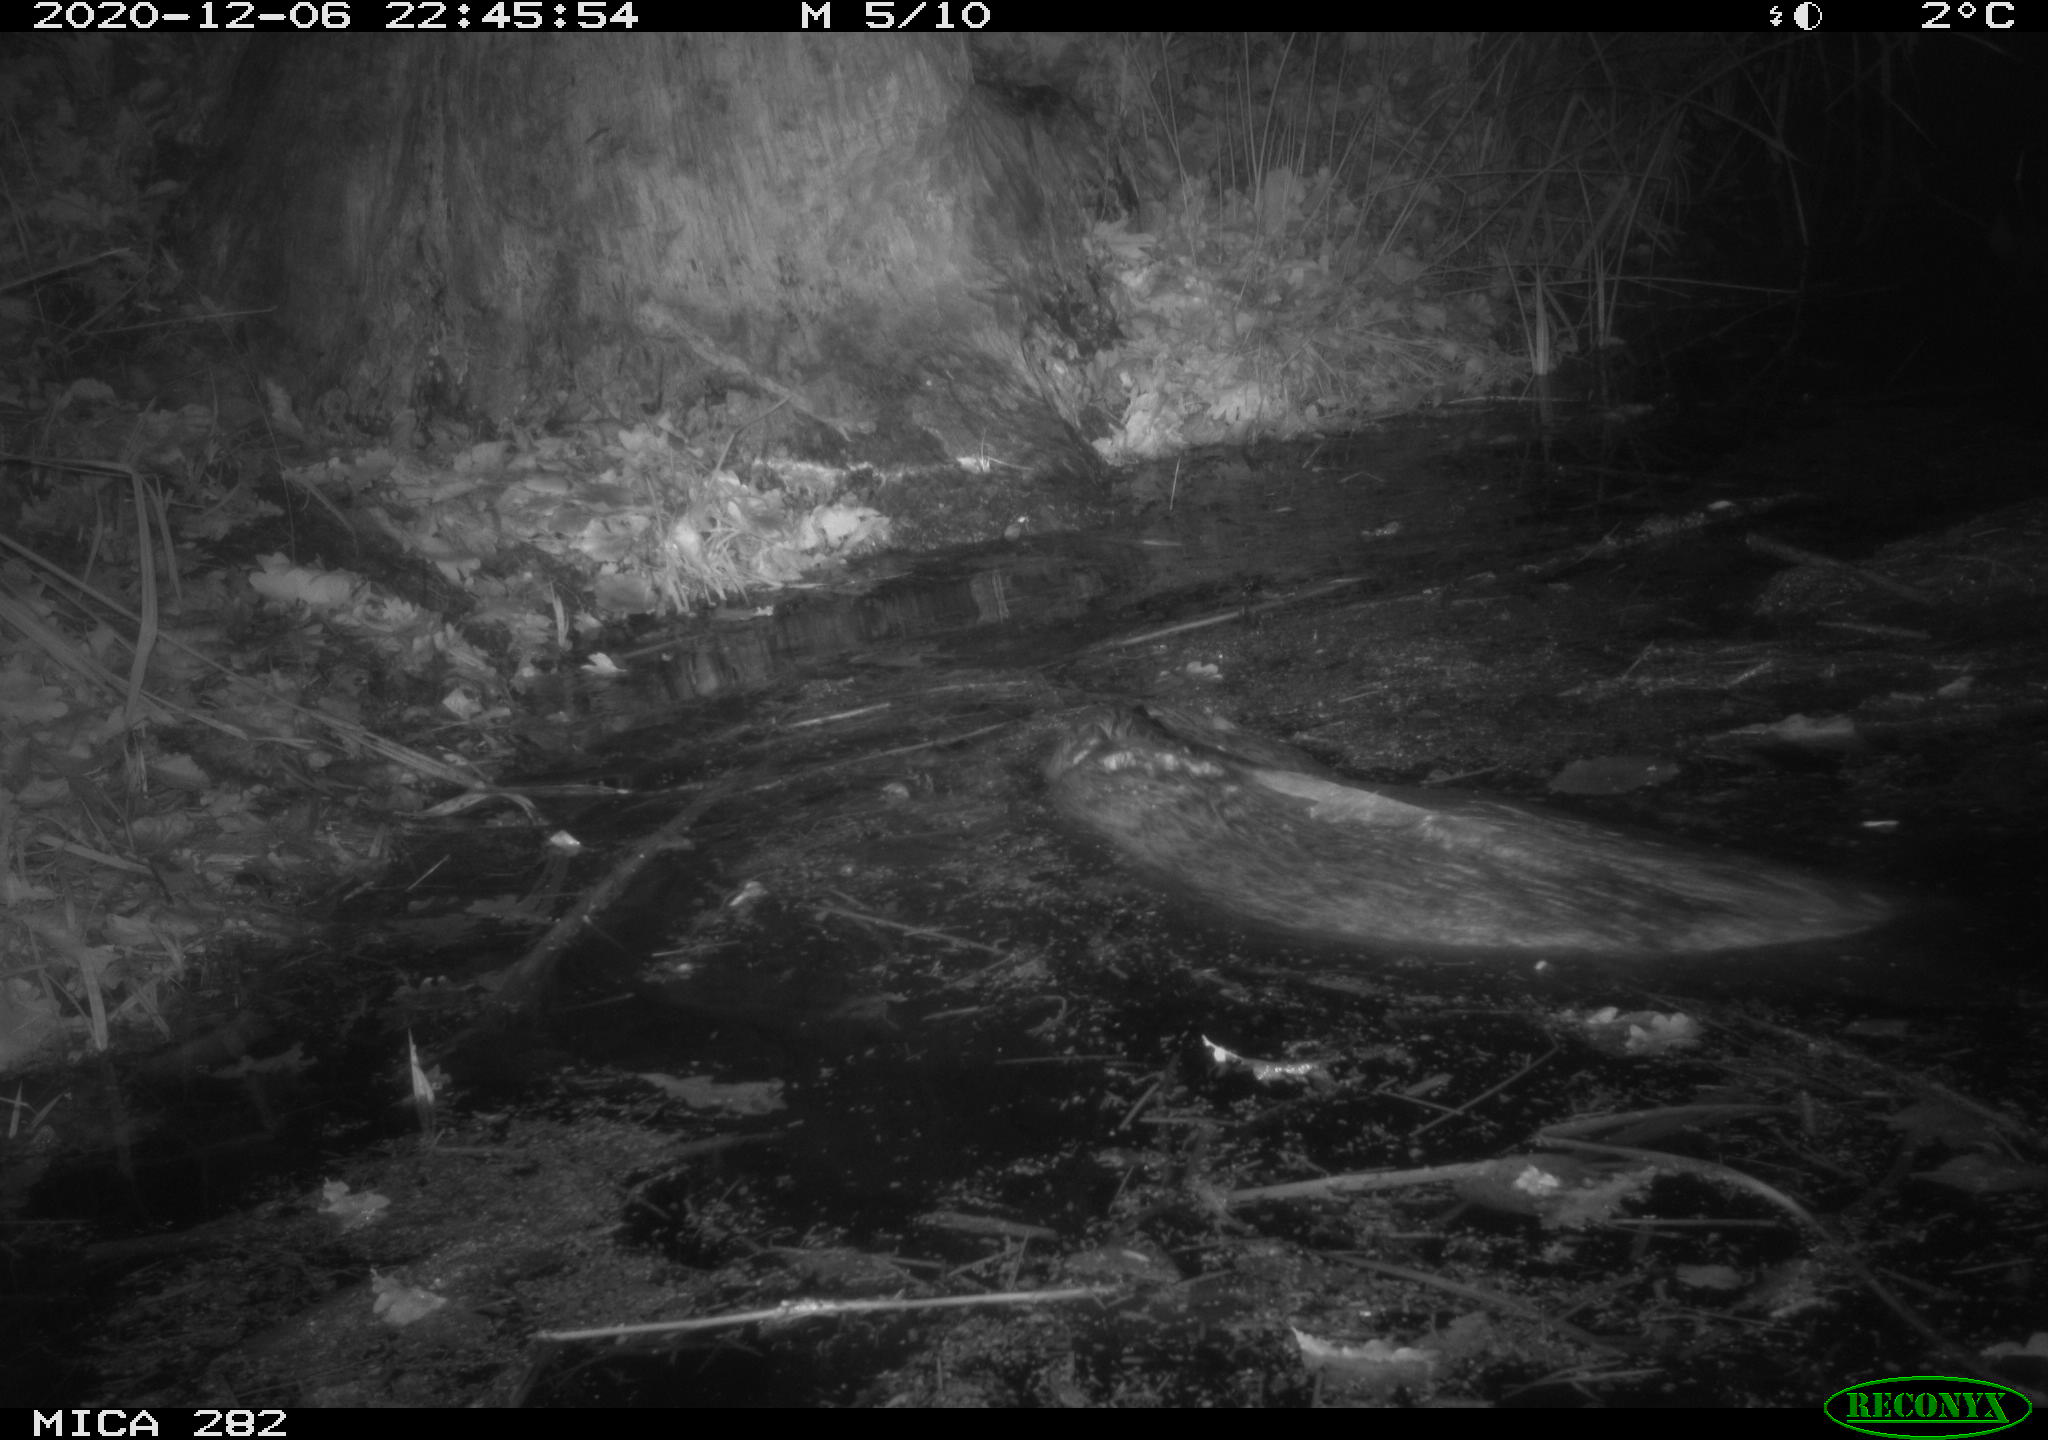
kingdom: Animalia
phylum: Chordata
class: Mammalia
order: Rodentia
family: Castoridae
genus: Castor
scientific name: Castor fiber
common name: Eurasian beaver
